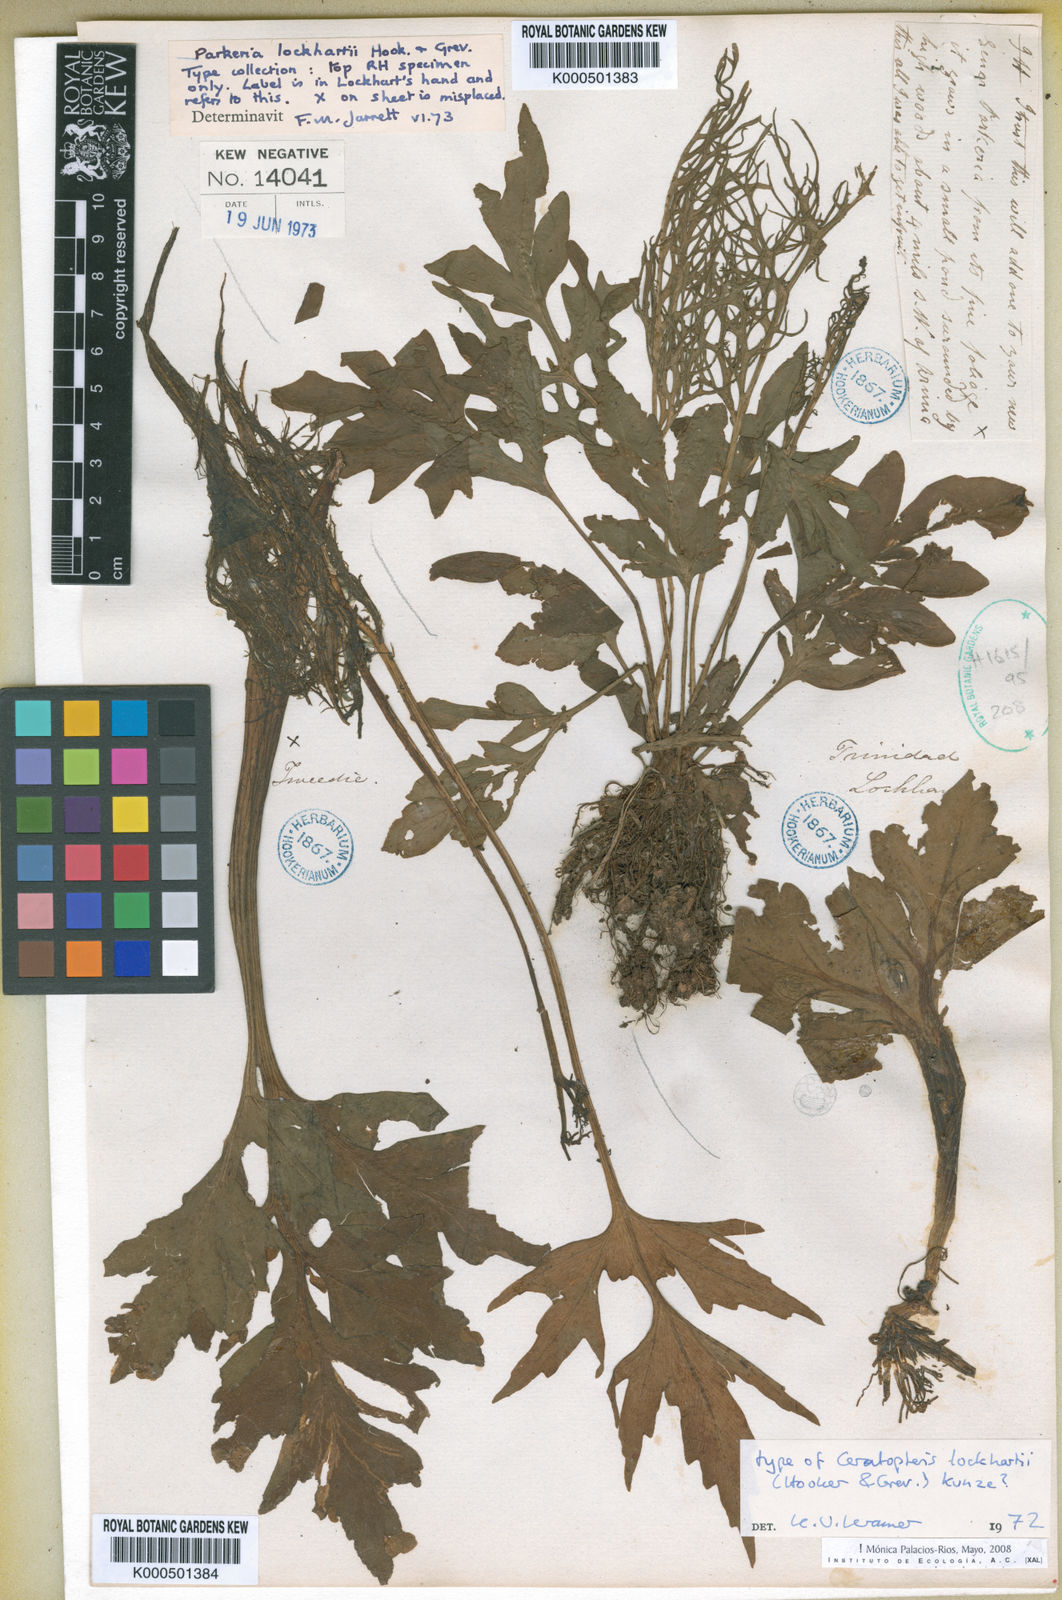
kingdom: Plantae
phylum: Tracheophyta
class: Polypodiopsida
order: Polypodiales
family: Pteridaceae
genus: Ceratopteris
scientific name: Ceratopteris pteridoides
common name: Floating fern
